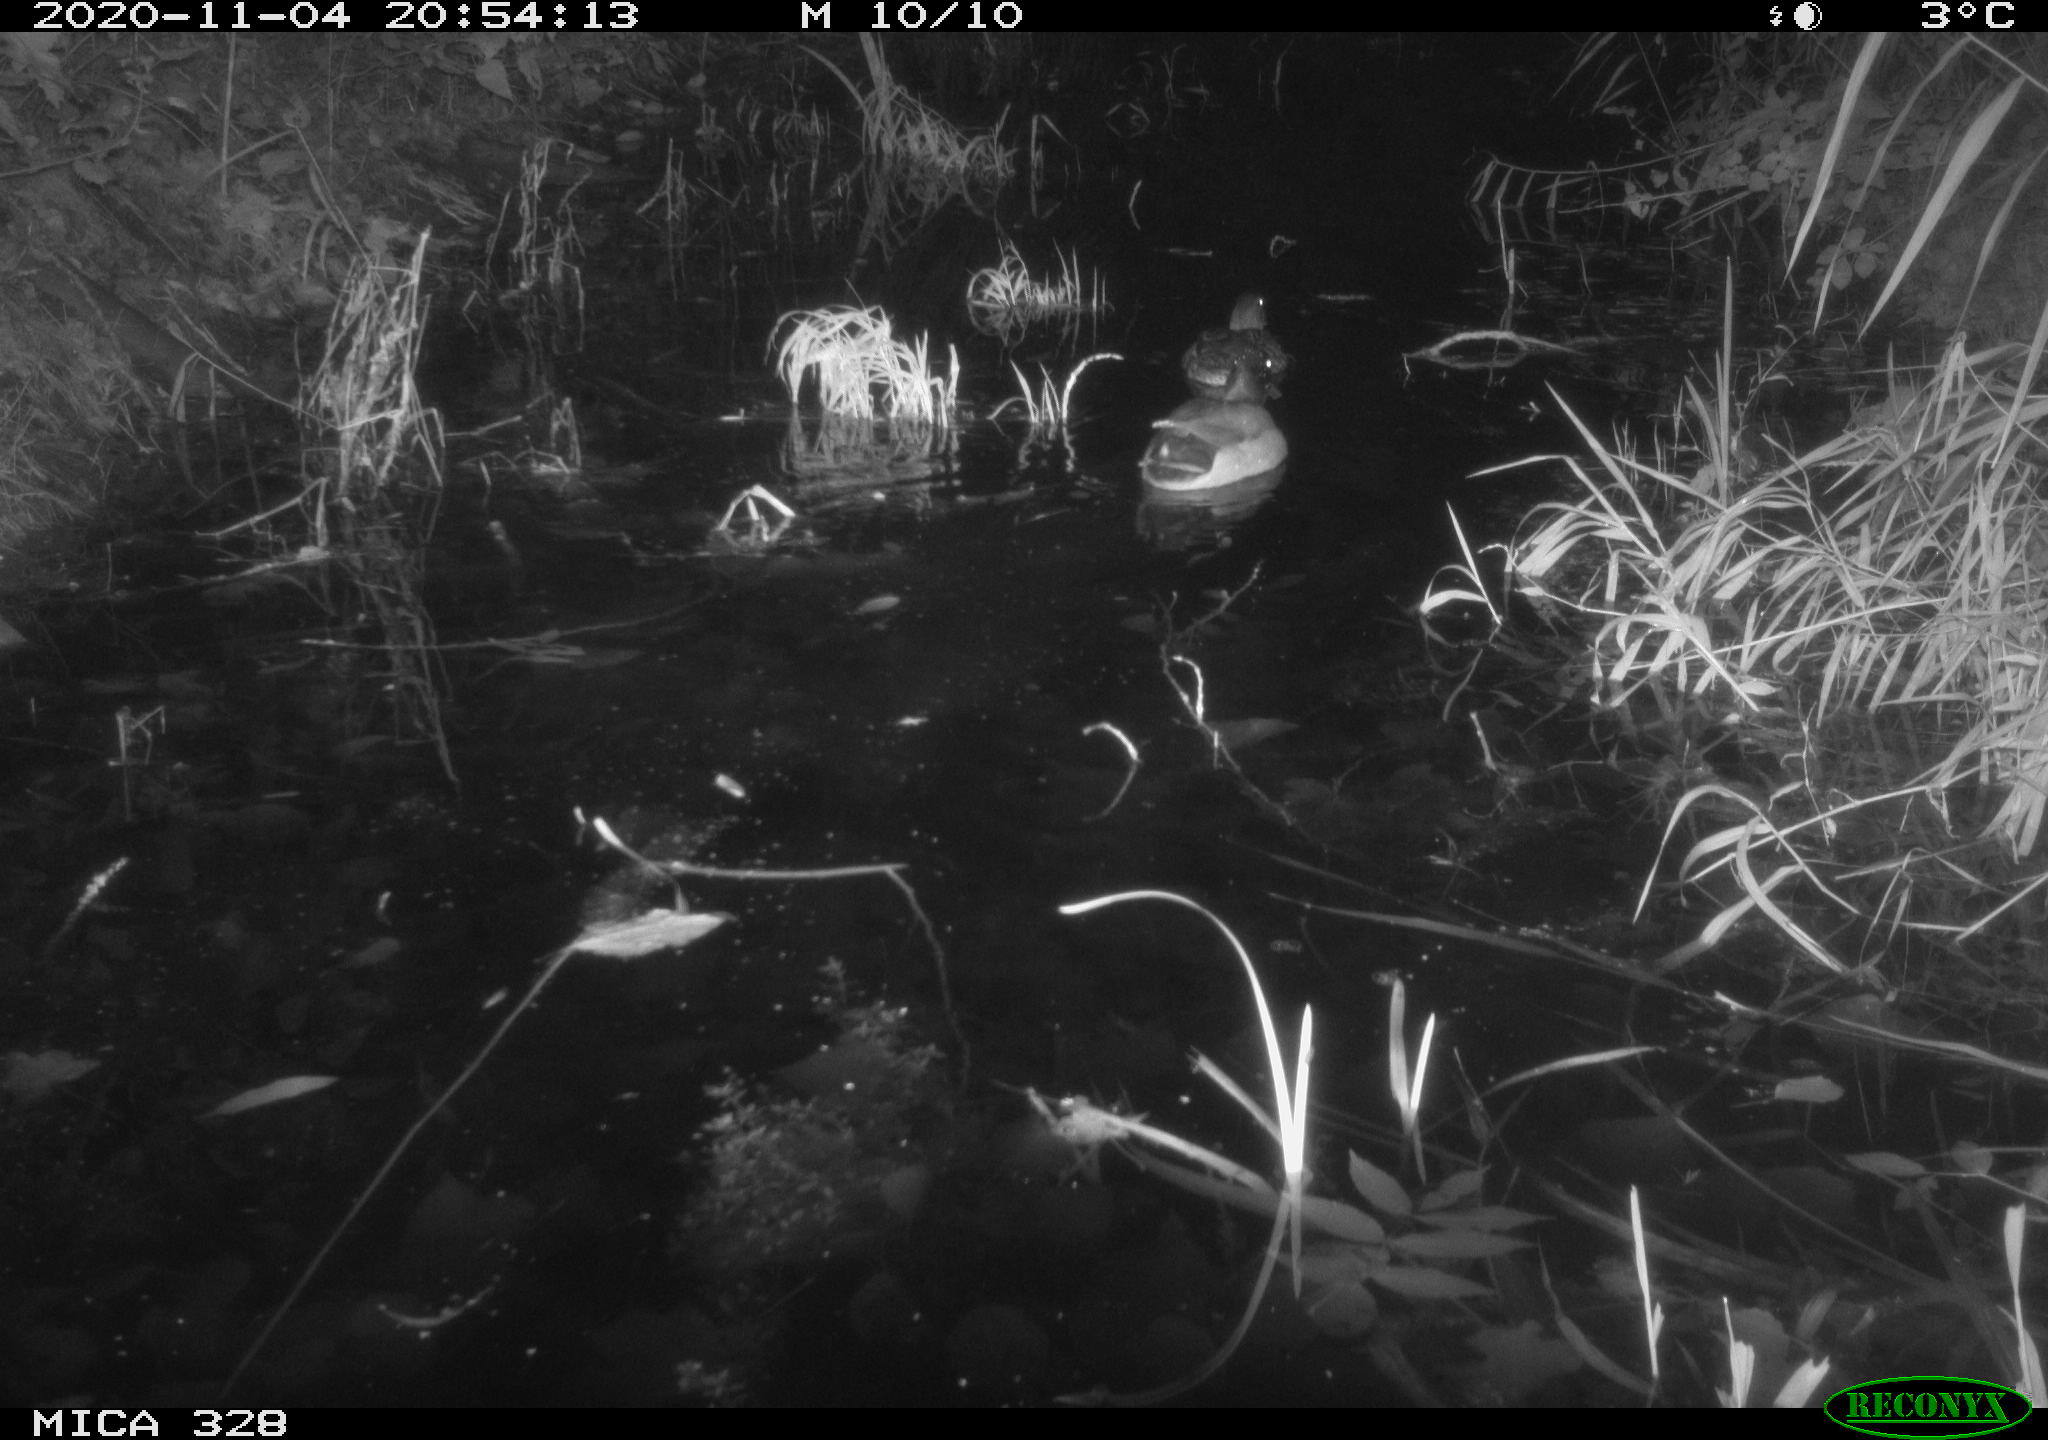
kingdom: Animalia
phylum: Chordata
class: Aves
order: Anseriformes
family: Anatidae
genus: Anas
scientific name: Anas platyrhynchos
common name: Mallard
